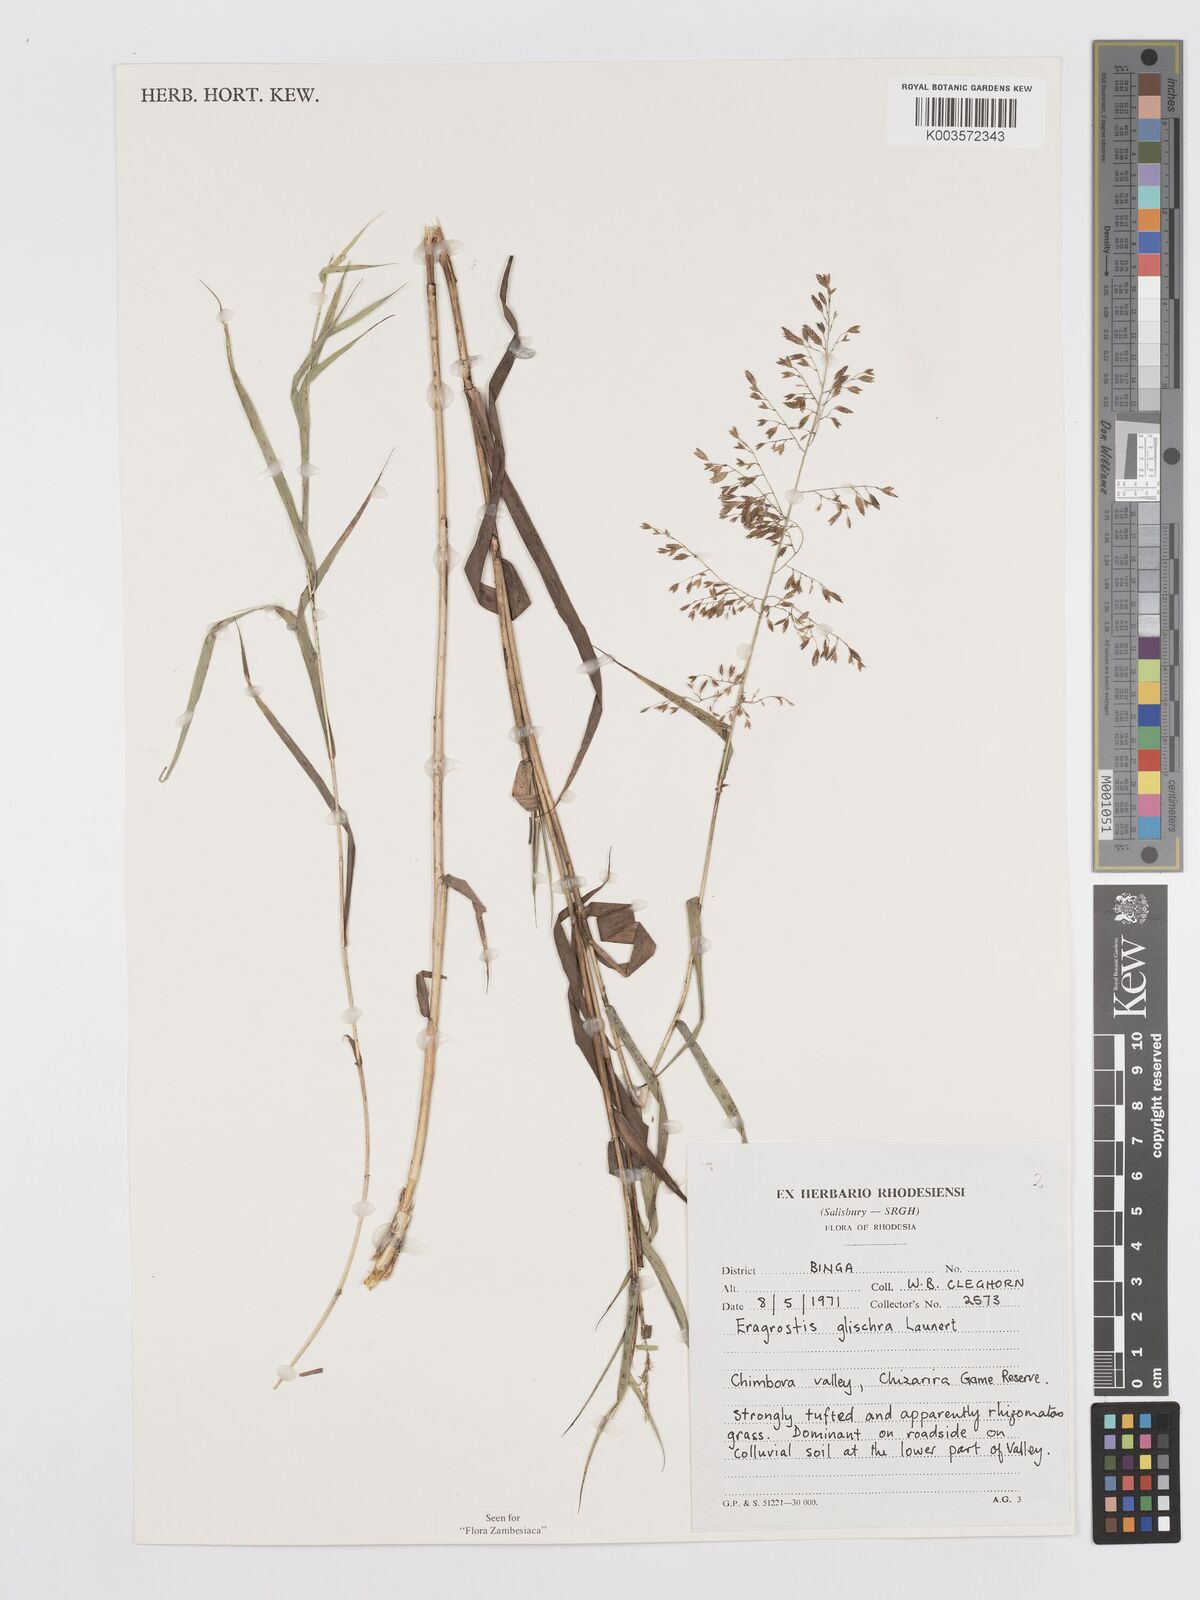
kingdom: Plantae
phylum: Tracheophyta
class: Liliopsida
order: Poales
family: Poaceae
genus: Eragrostis
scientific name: Eragrostis glischra
